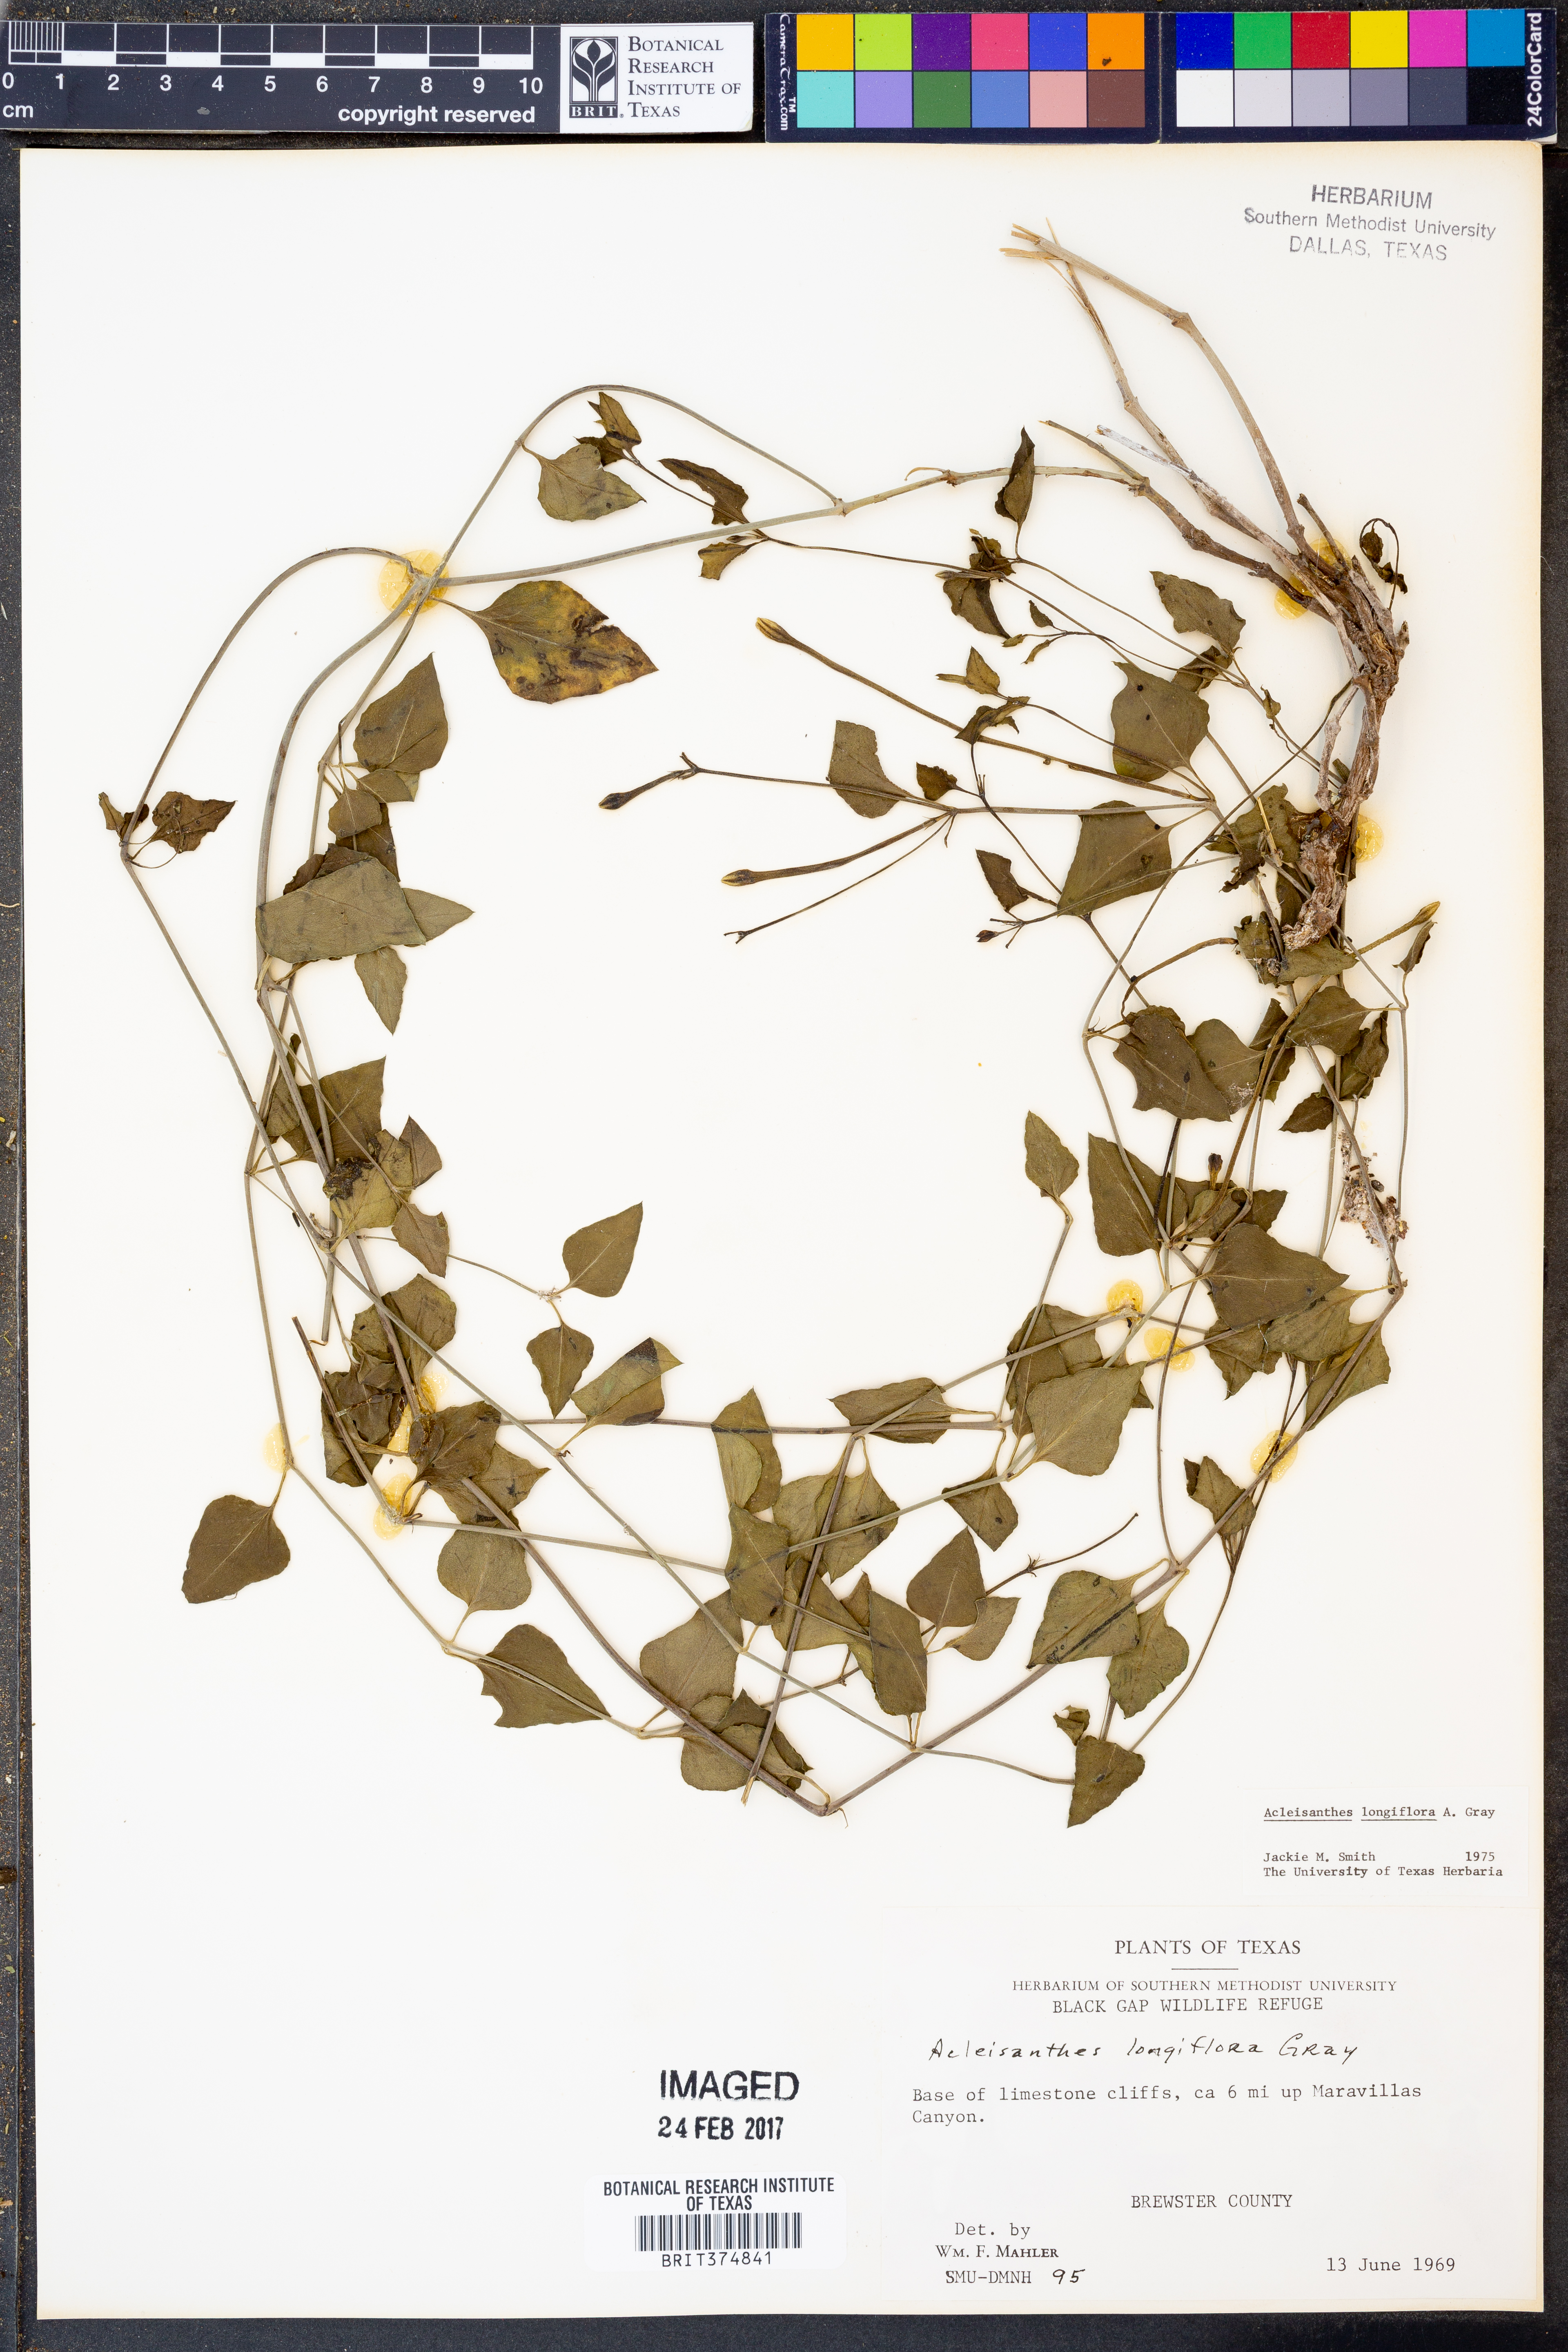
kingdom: Plantae
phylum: Tracheophyta
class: Magnoliopsida
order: Caryophyllales
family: Nyctaginaceae
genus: Acleisanthes
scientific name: Acleisanthes longiflora
